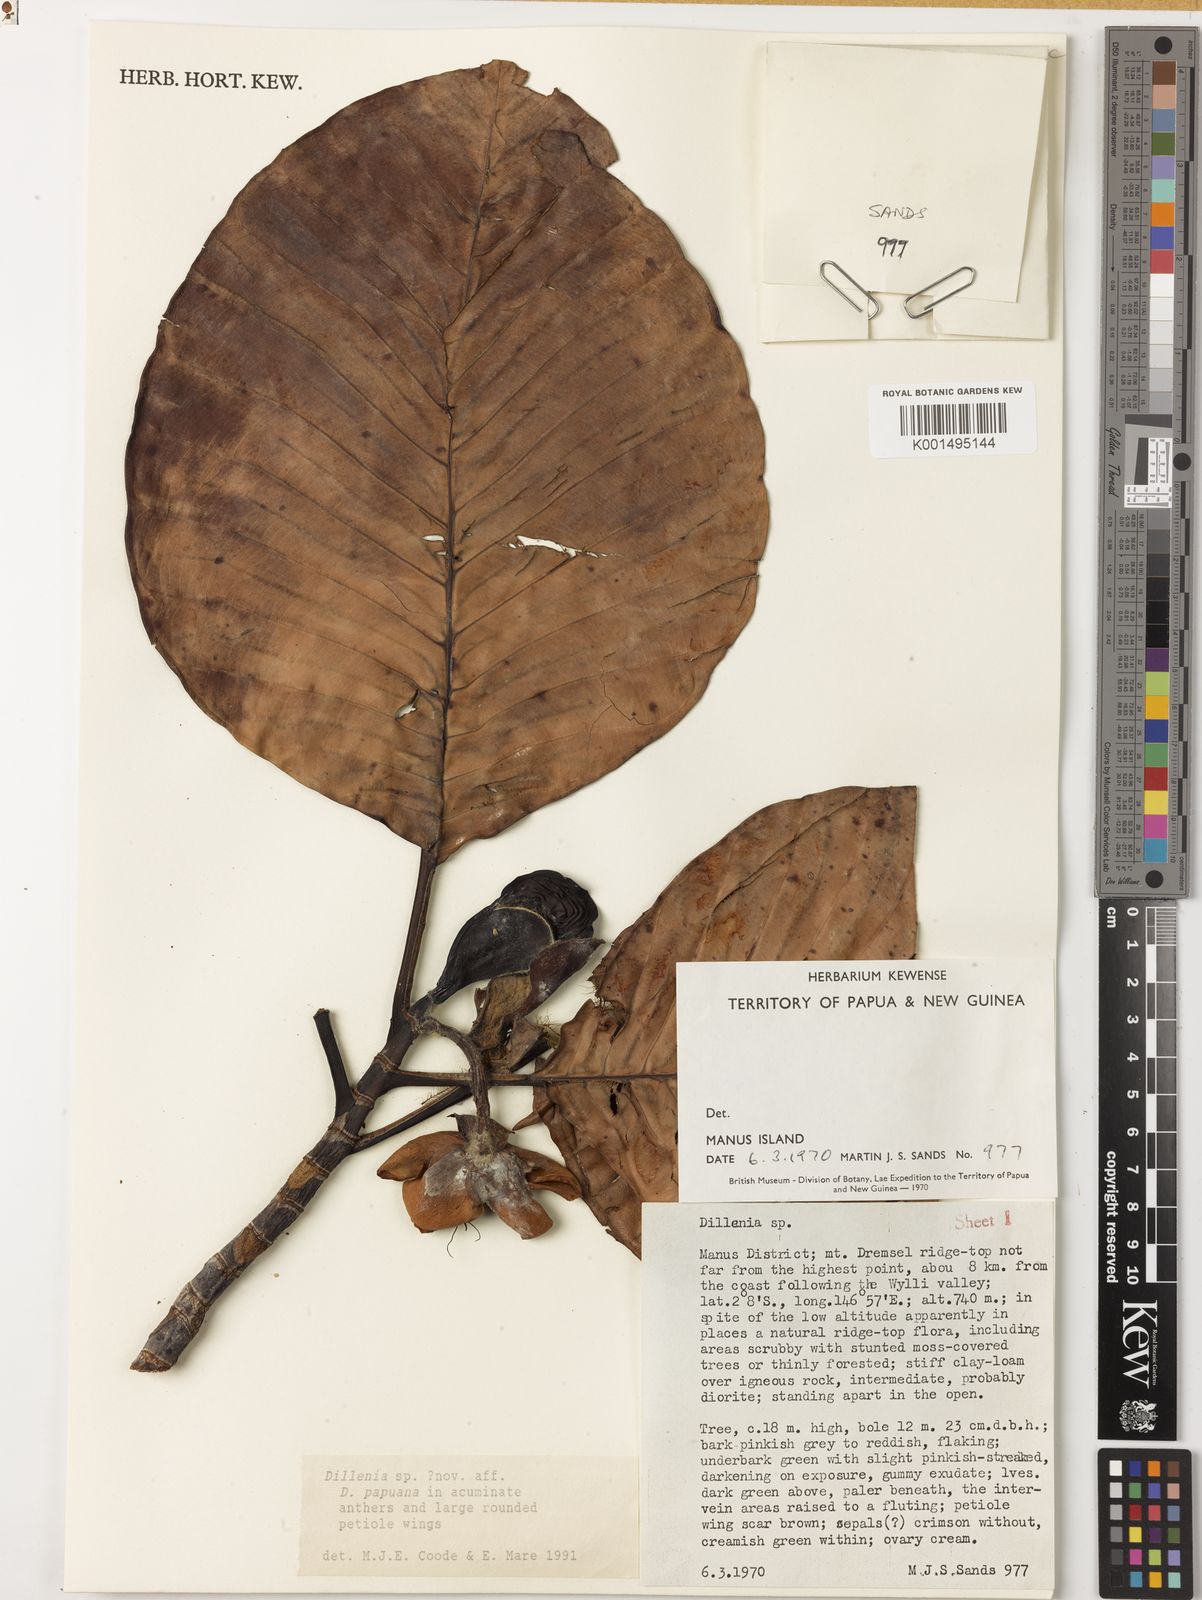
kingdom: Plantae
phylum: Tracheophyta
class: Magnoliopsida
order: Dilleniales
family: Dilleniaceae
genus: Dillenia
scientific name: Dillenia
